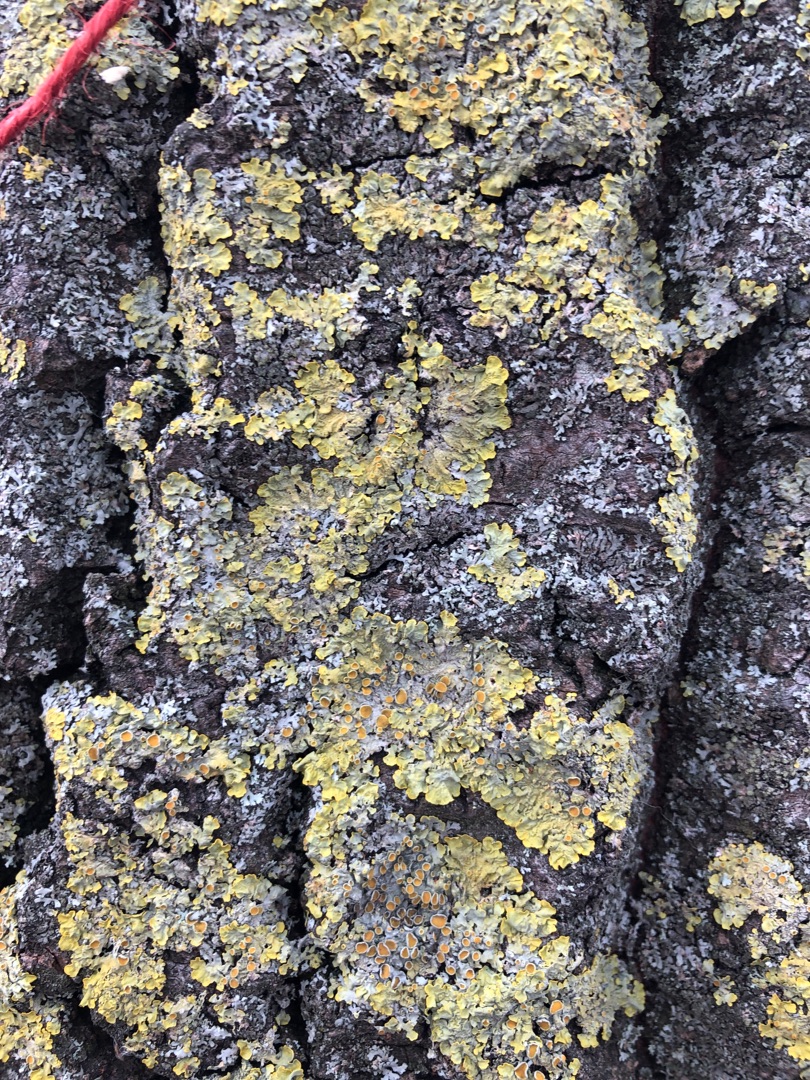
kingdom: Fungi
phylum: Ascomycota
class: Lecanoromycetes
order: Teloschistales
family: Teloschistaceae
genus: Xanthoria
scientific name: Xanthoria parietina
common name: Almindelig væggelav
